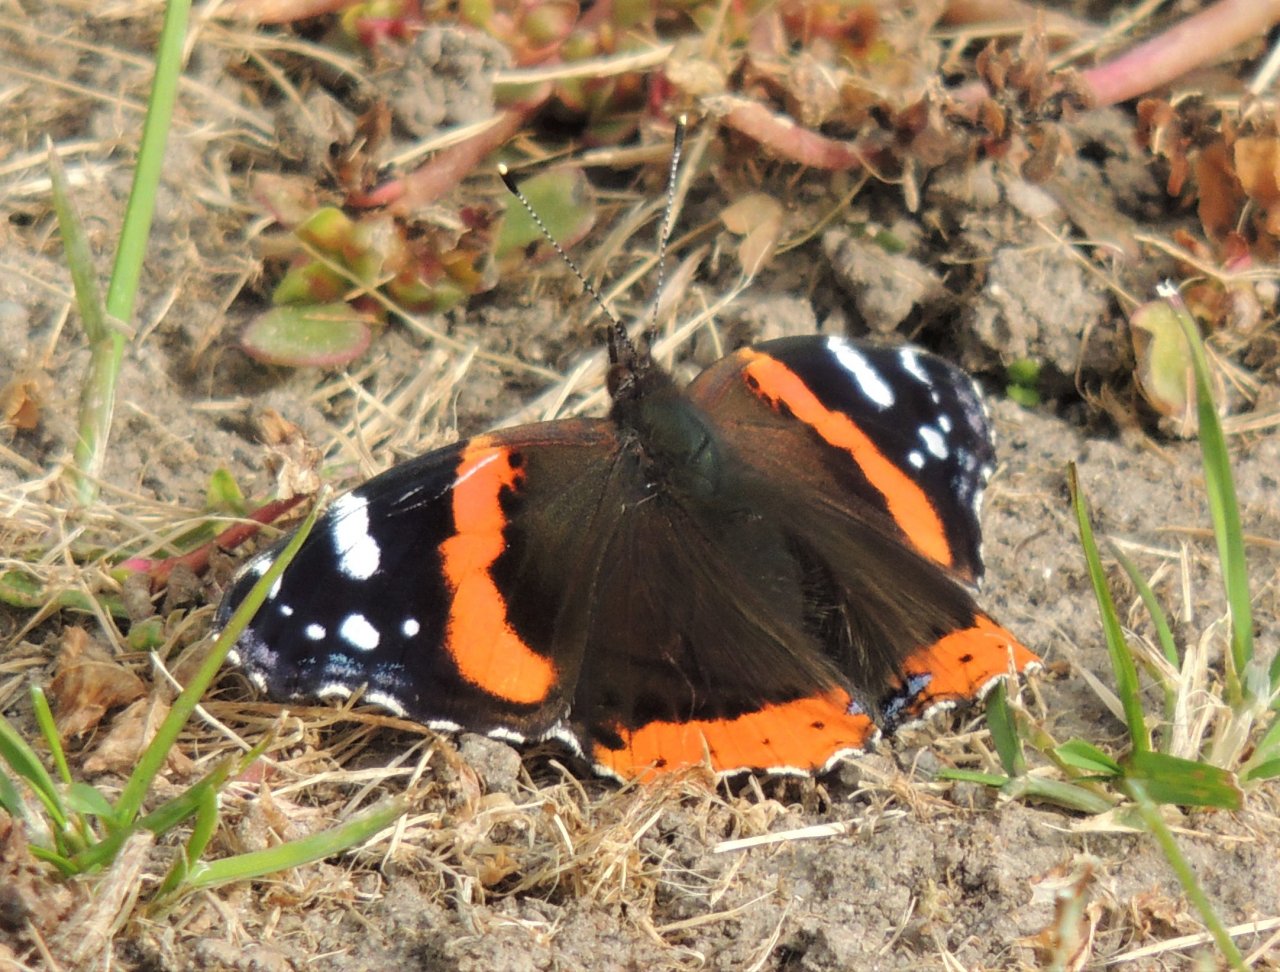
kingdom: Animalia
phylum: Arthropoda
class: Insecta
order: Lepidoptera
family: Nymphalidae
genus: Vanessa
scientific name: Vanessa atalanta
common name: Red Admiral
